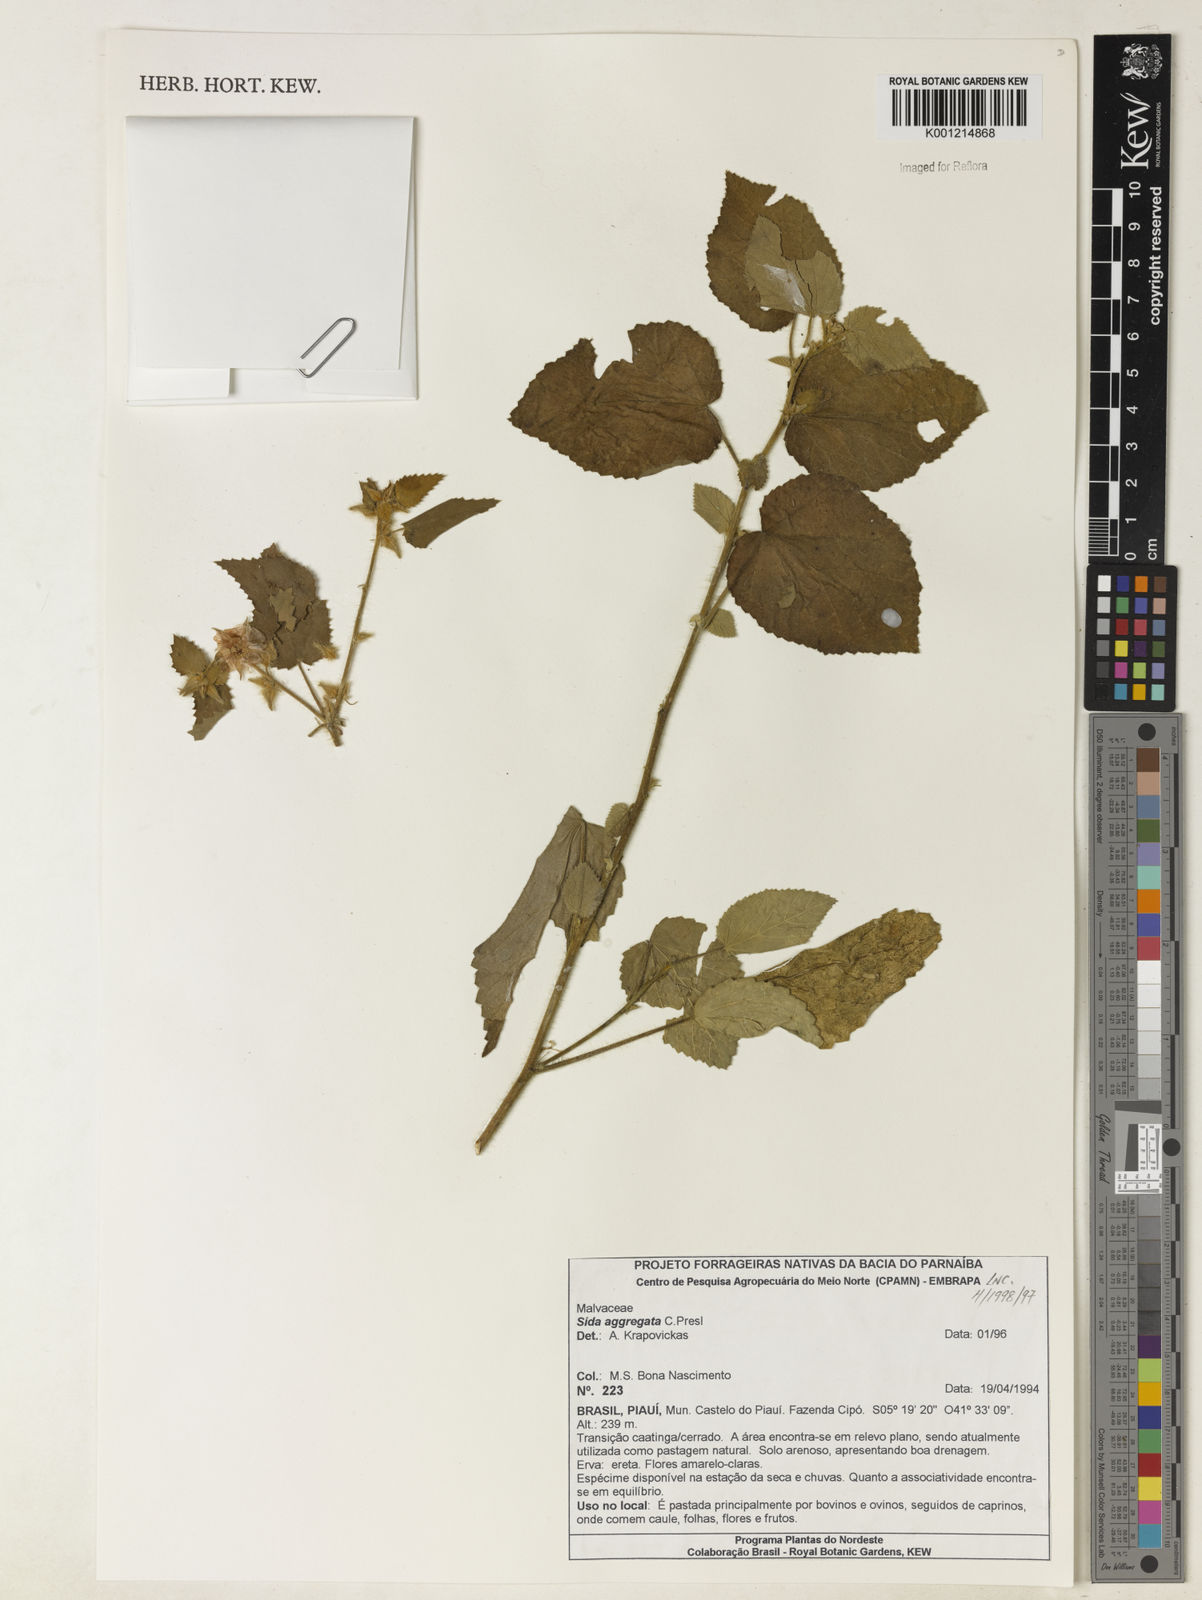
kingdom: Plantae
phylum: Tracheophyta
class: Magnoliopsida
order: Malvales
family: Malvaceae
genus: Sida
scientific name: Sida aggregata
